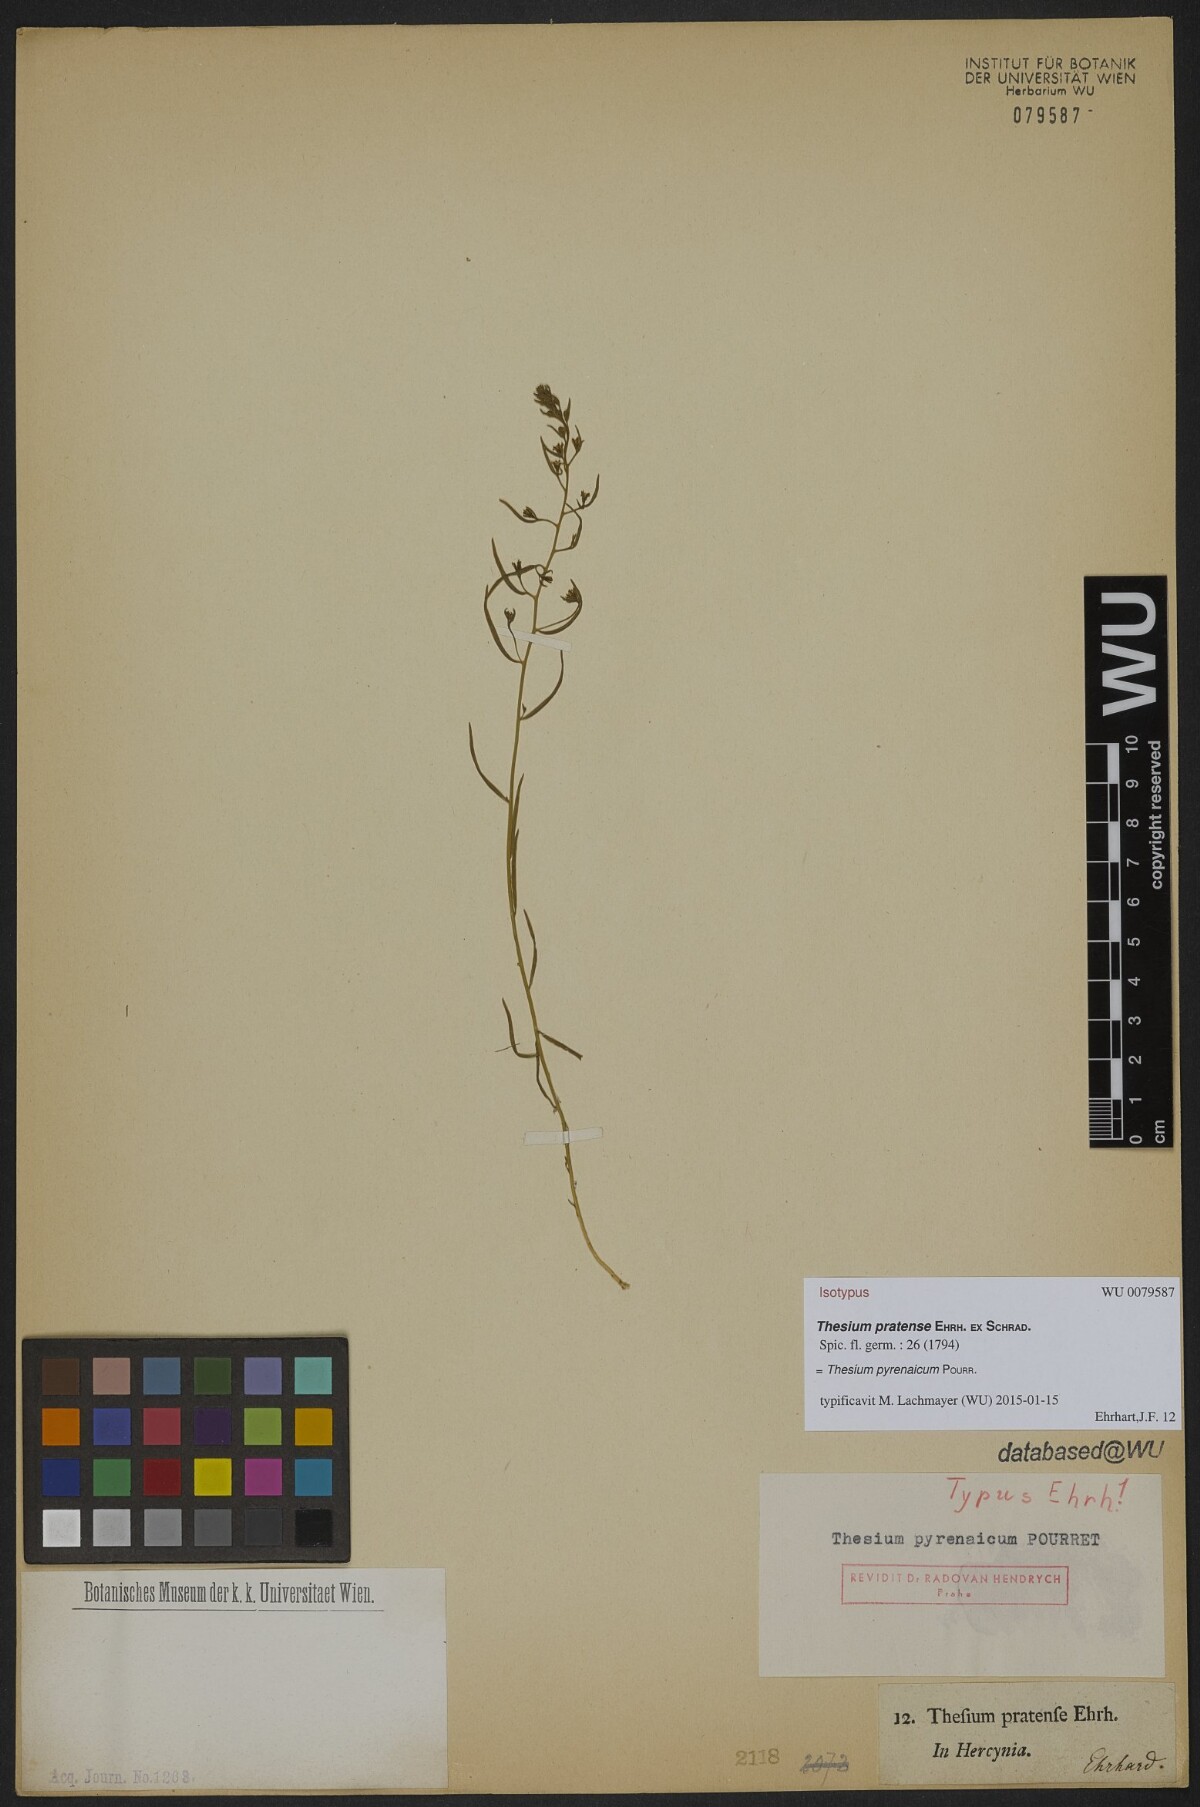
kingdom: Plantae
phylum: Tracheophyta
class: Magnoliopsida
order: Santalales
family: Thesiaceae
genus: Thesium
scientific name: Thesium pyrenaicum
